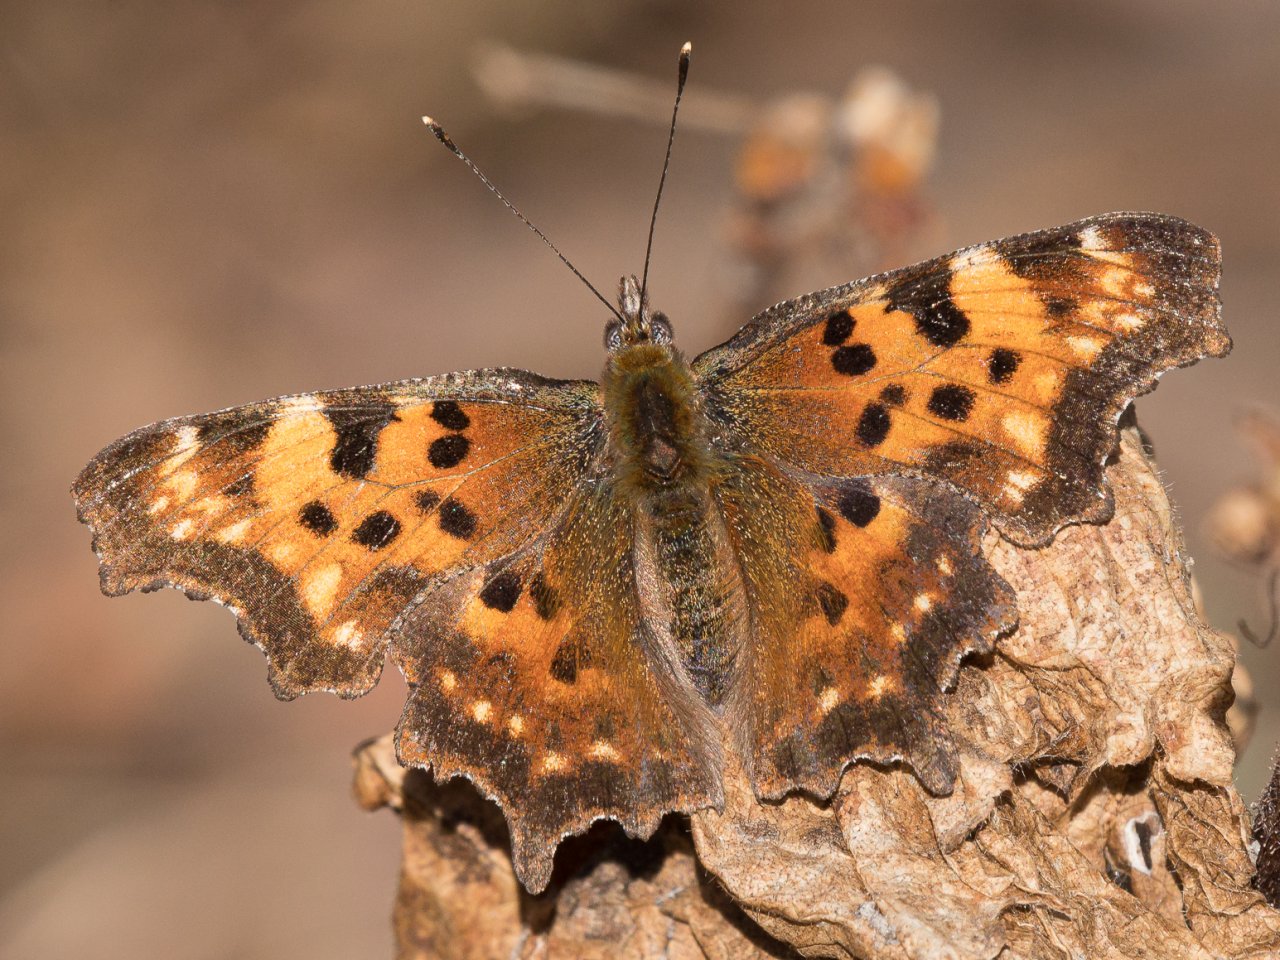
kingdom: Animalia
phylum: Arthropoda
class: Insecta
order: Lepidoptera
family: Nymphalidae
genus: Polygonia
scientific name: Polygonia faunus
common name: Green Comma
